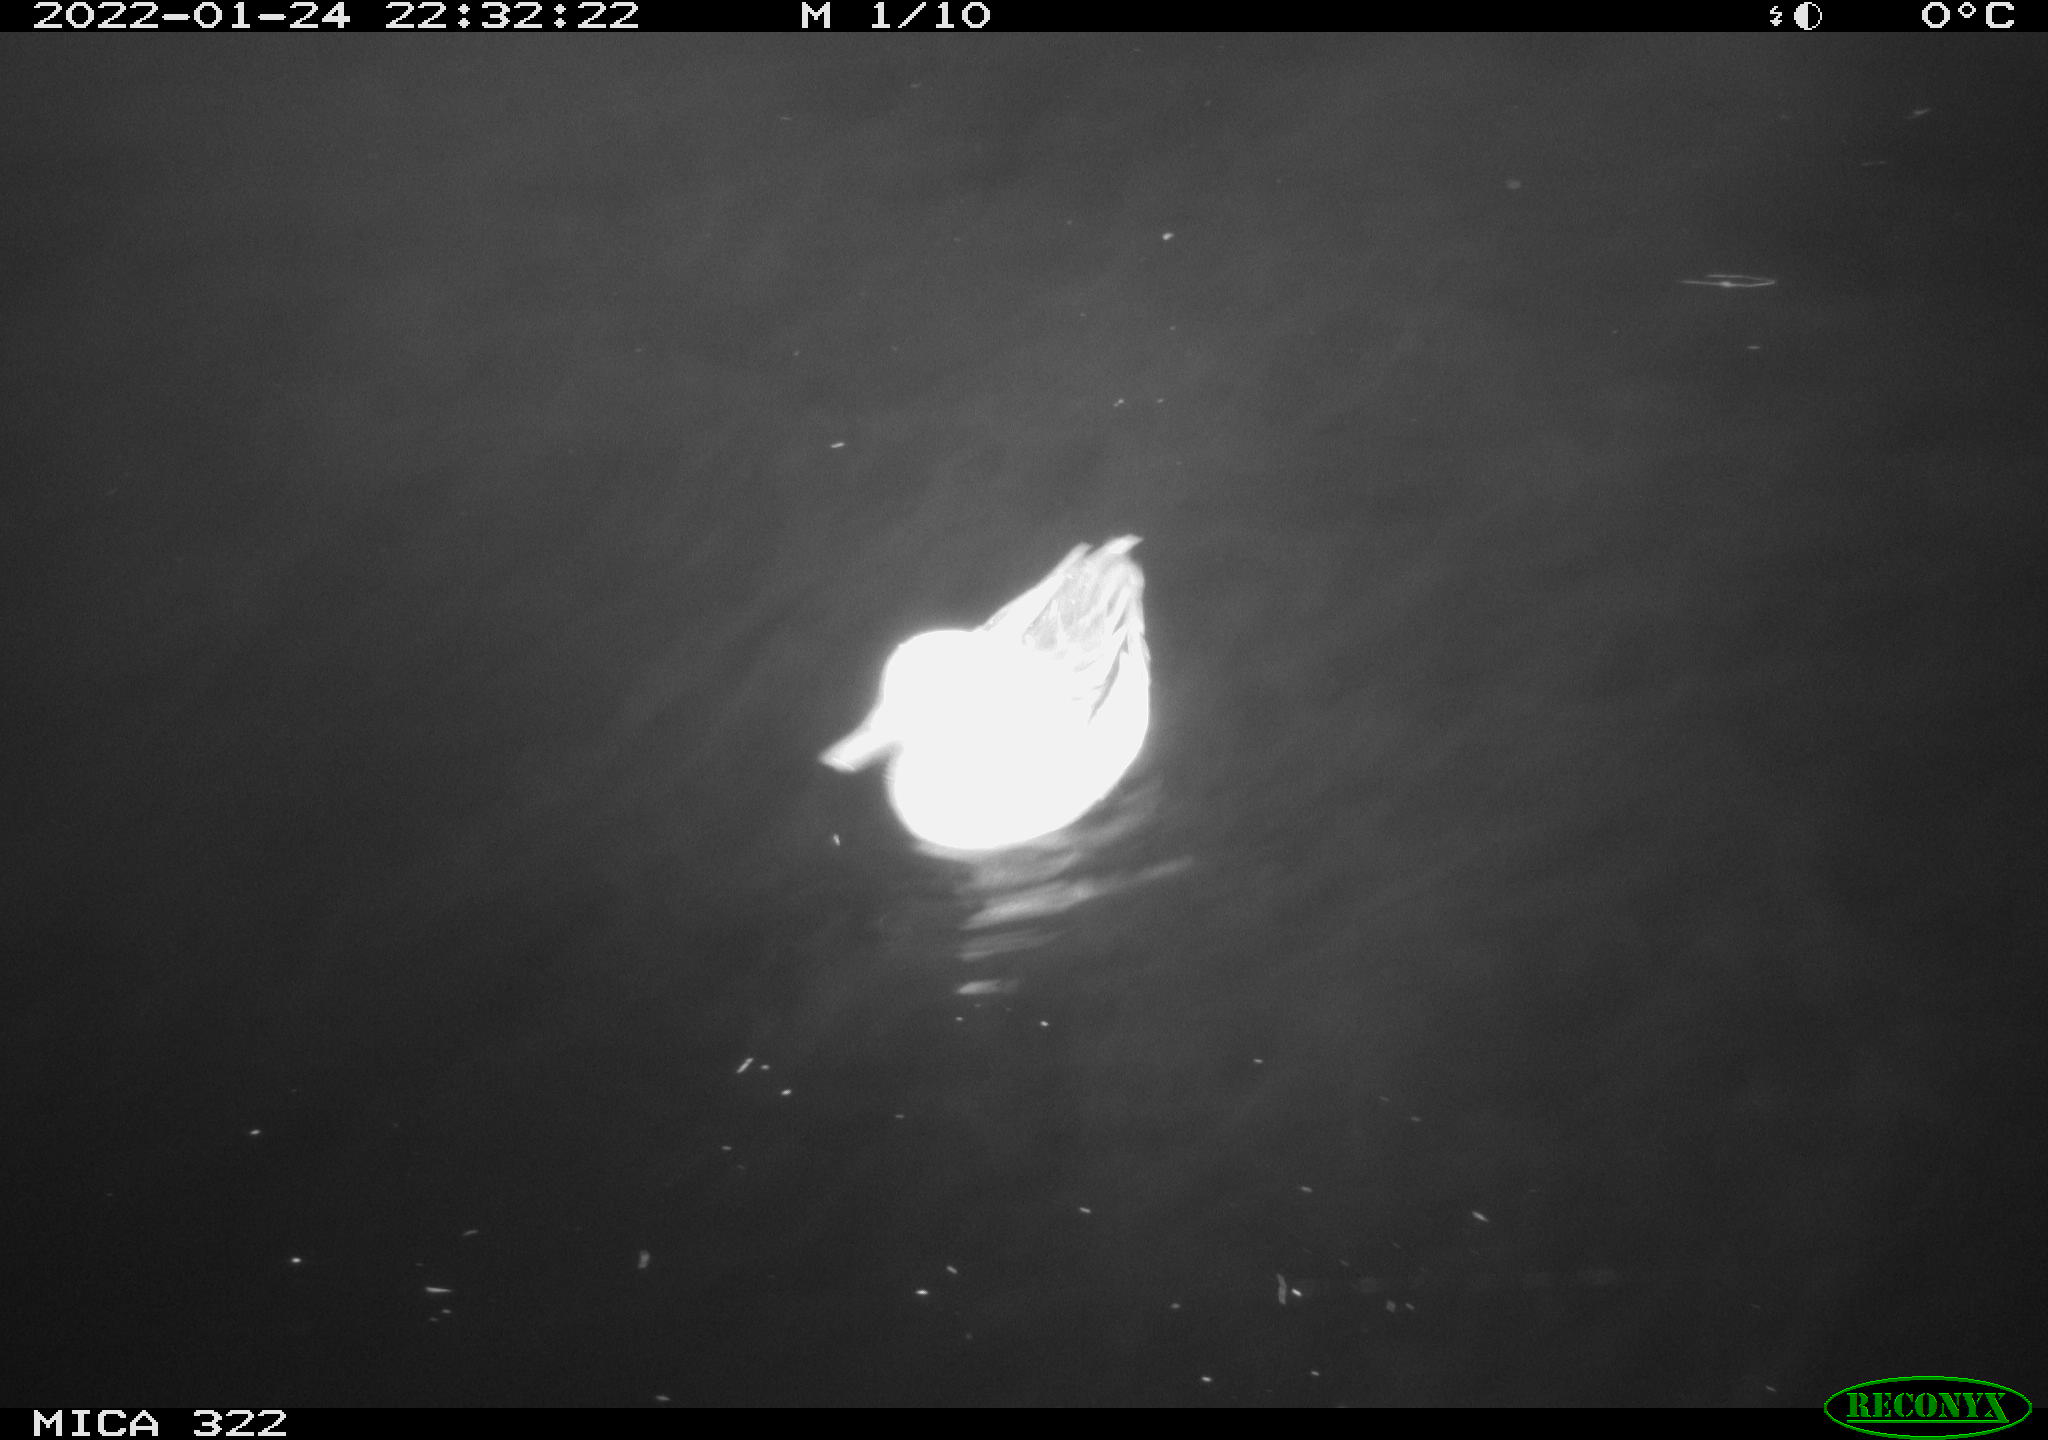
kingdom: Animalia
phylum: Chordata
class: Aves
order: Gruiformes
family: Rallidae
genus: Gallinula
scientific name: Gallinula chloropus
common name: Common moorhen
